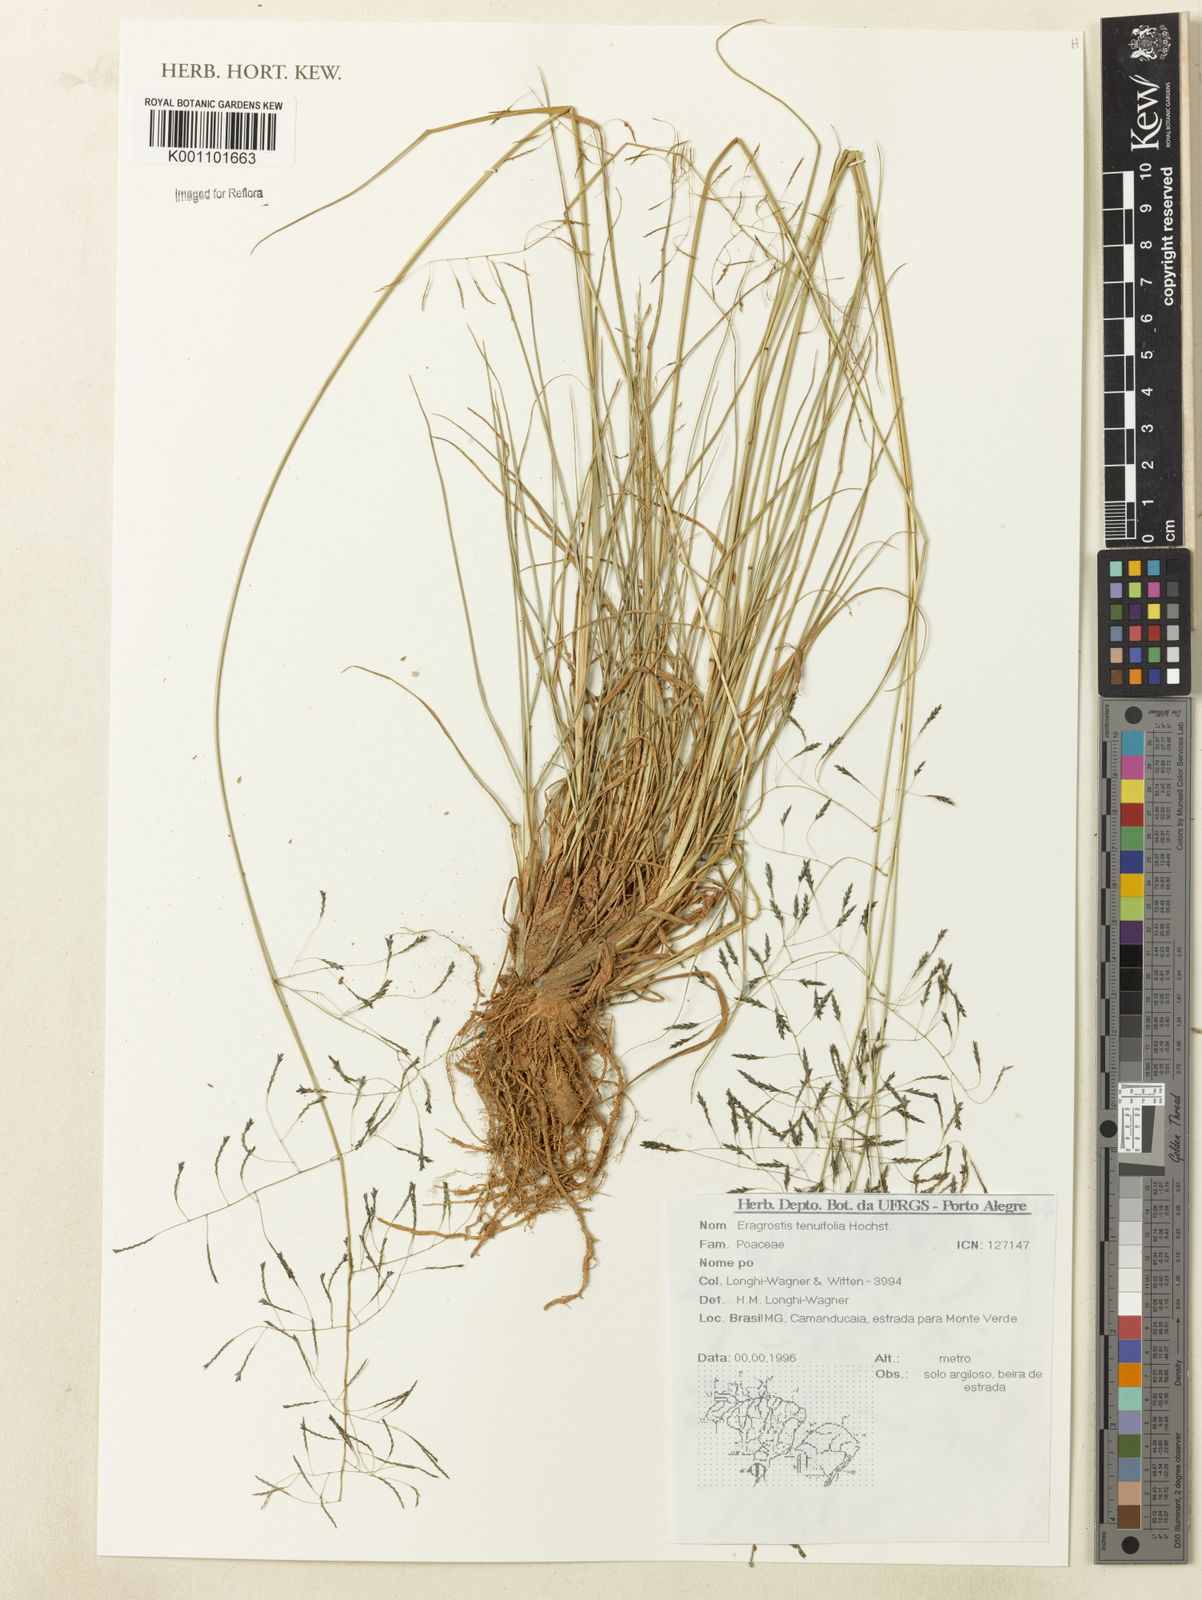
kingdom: Plantae
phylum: Tracheophyta
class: Liliopsida
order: Poales
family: Poaceae
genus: Eragrostis
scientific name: Eragrostis tenuifolia
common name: Elastic grass
